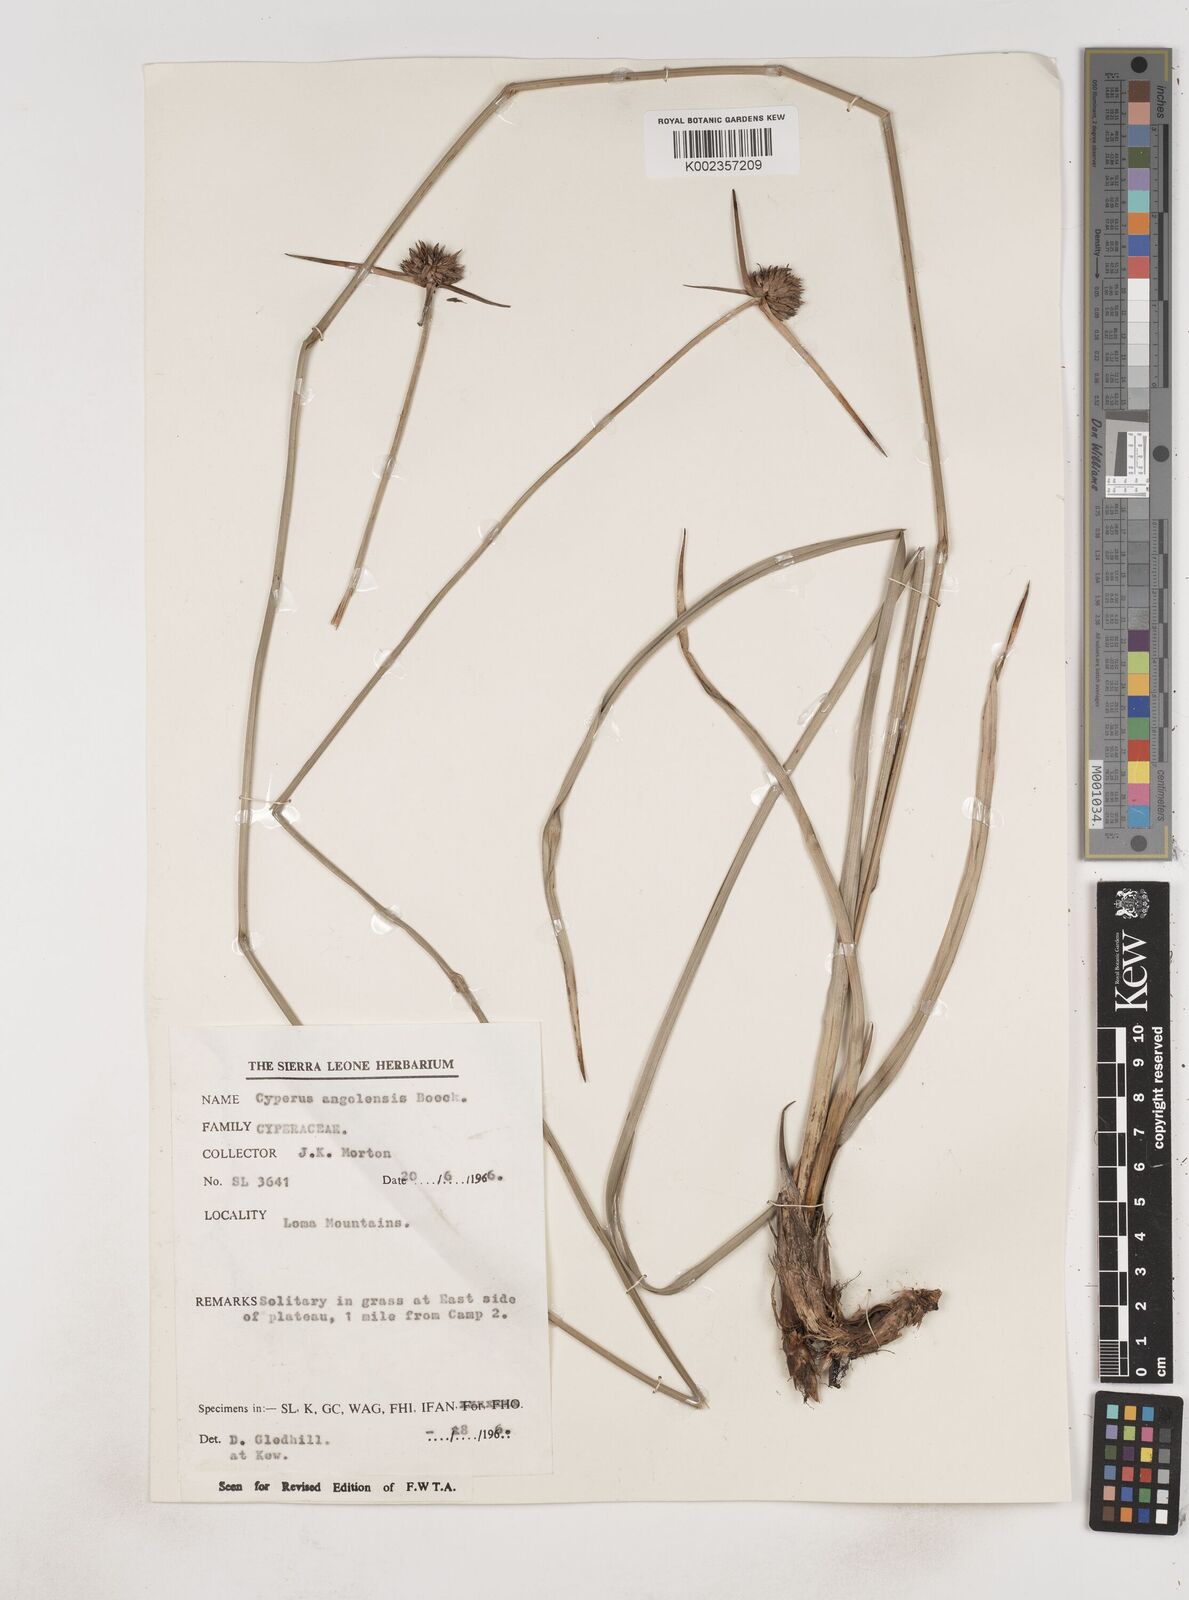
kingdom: Plantae
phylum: Tracheophyta
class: Liliopsida
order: Poales
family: Cyperaceae
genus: Cyperus
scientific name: Cyperus angolensis
